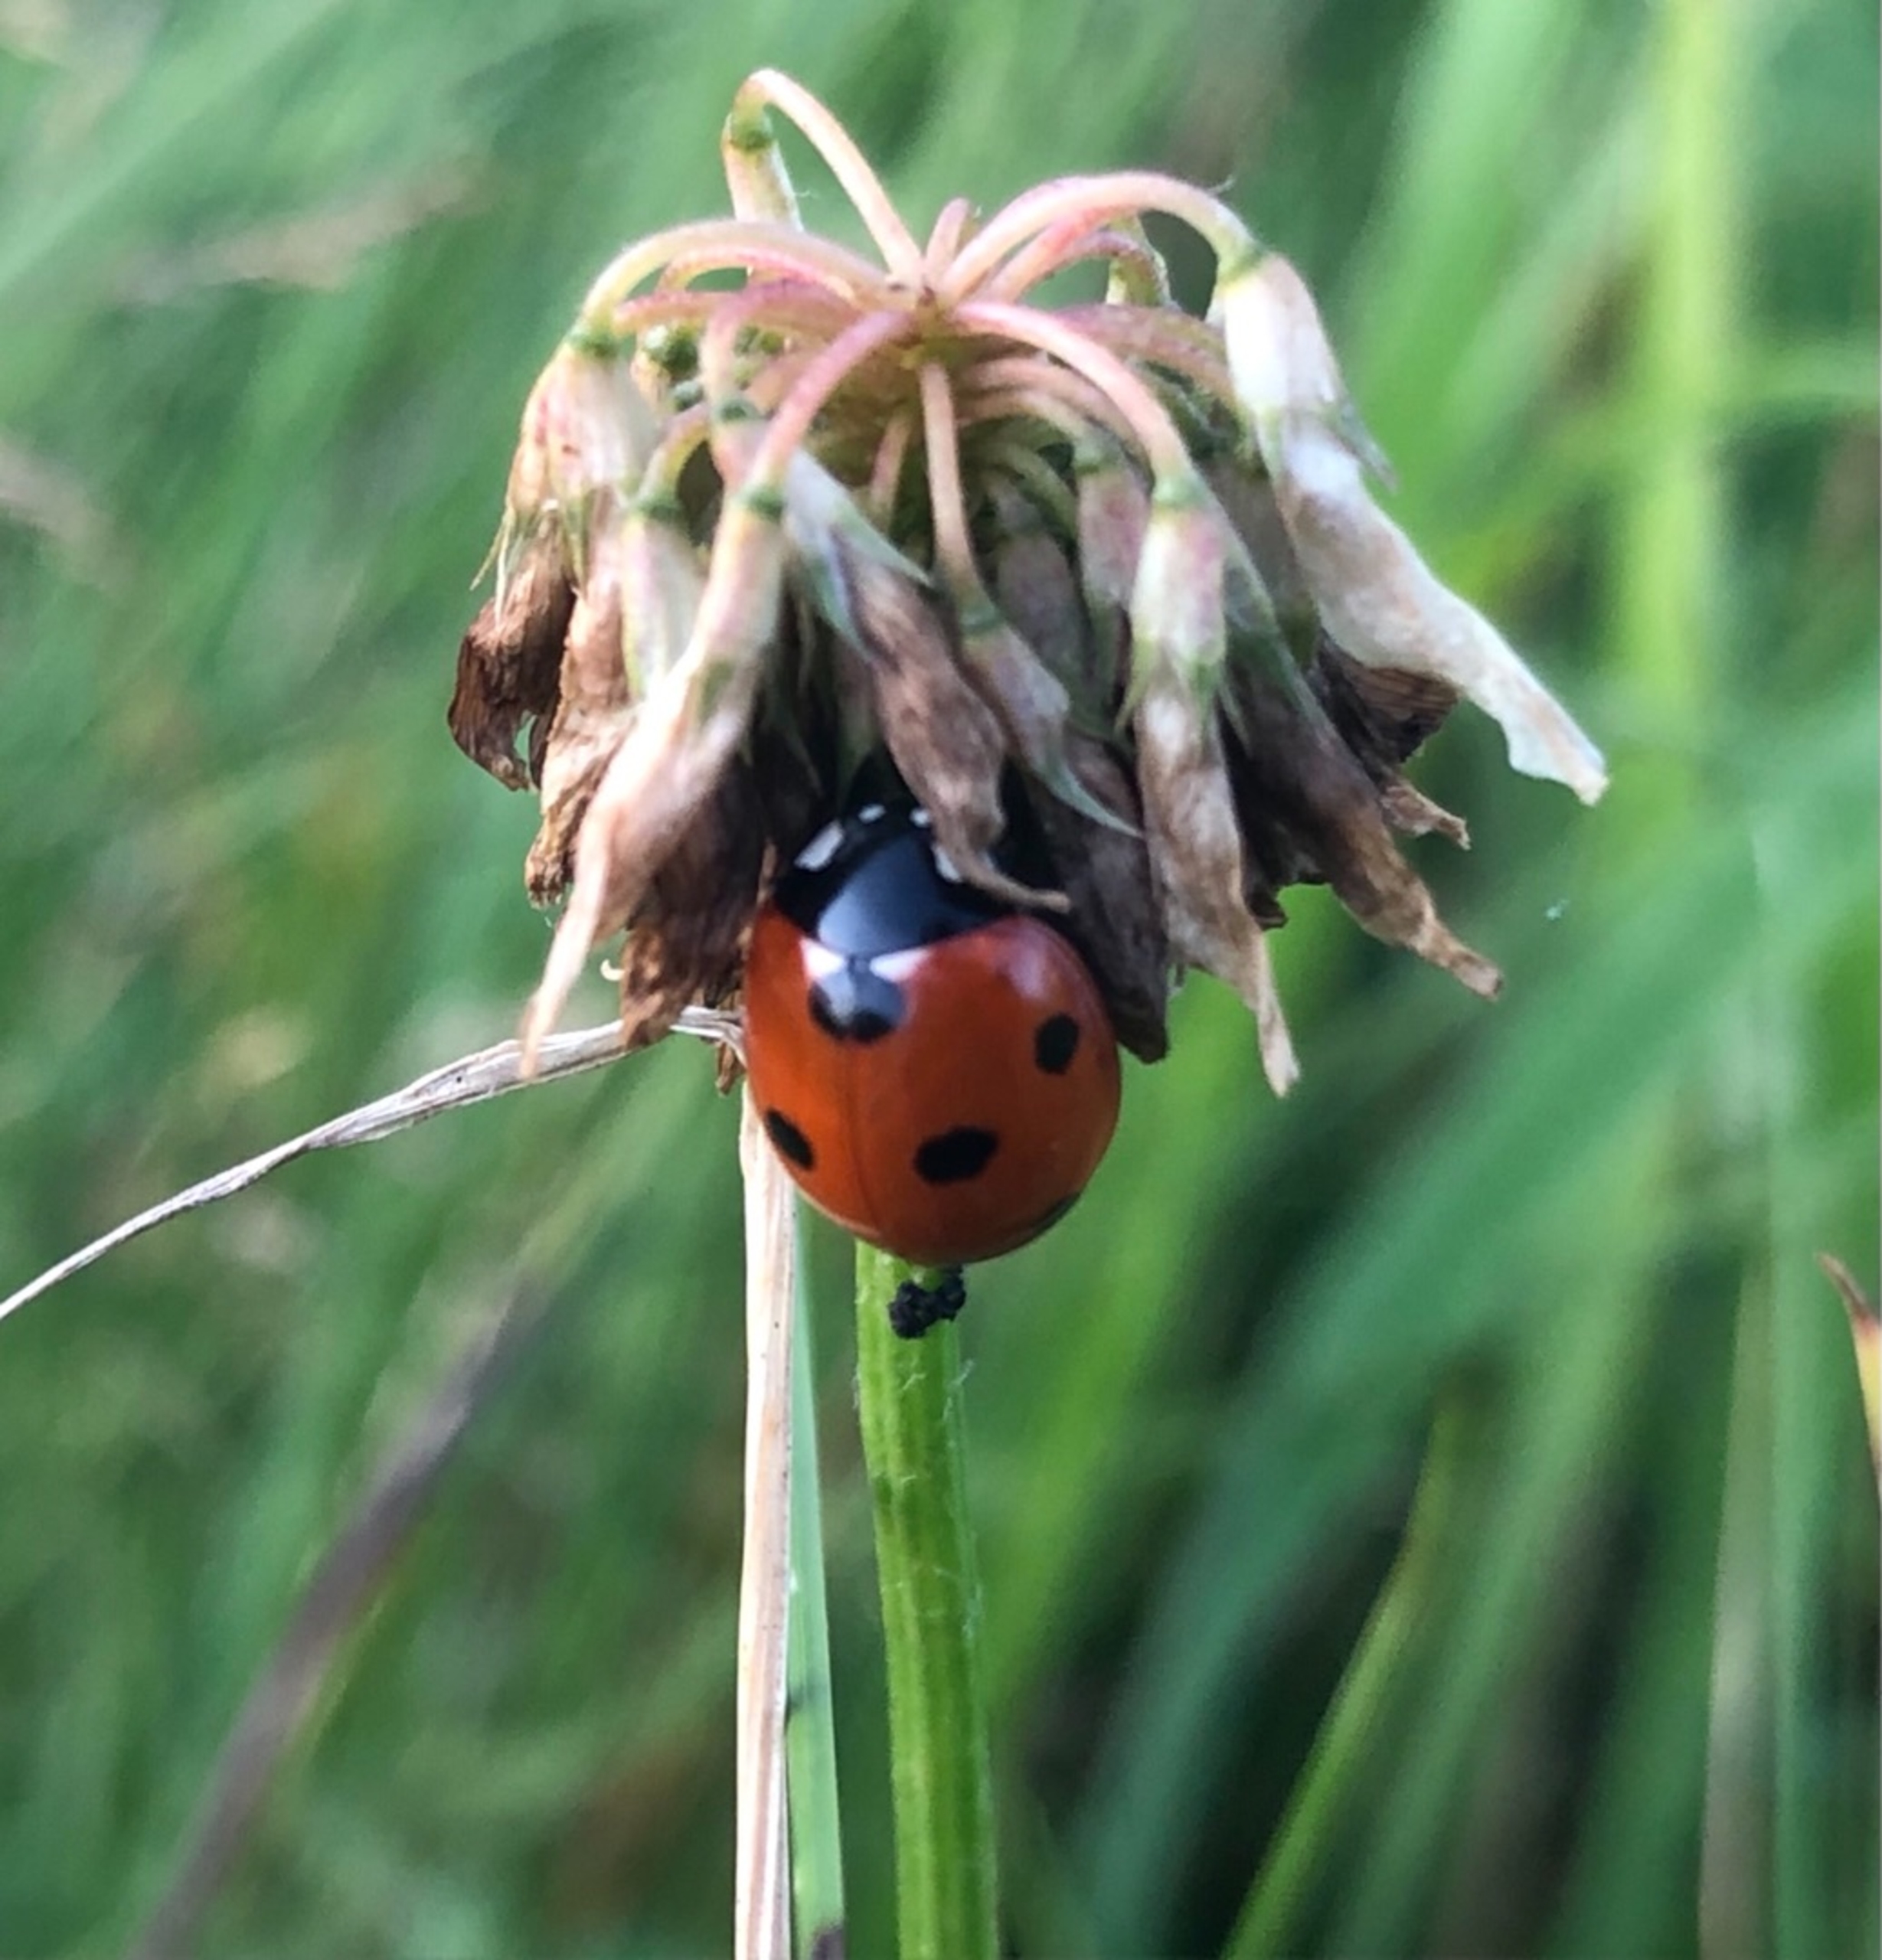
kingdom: Animalia
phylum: Arthropoda
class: Insecta
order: Coleoptera
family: Coccinellidae
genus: Coccinella
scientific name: Coccinella septempunctata
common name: Syvplettet mariehøne
